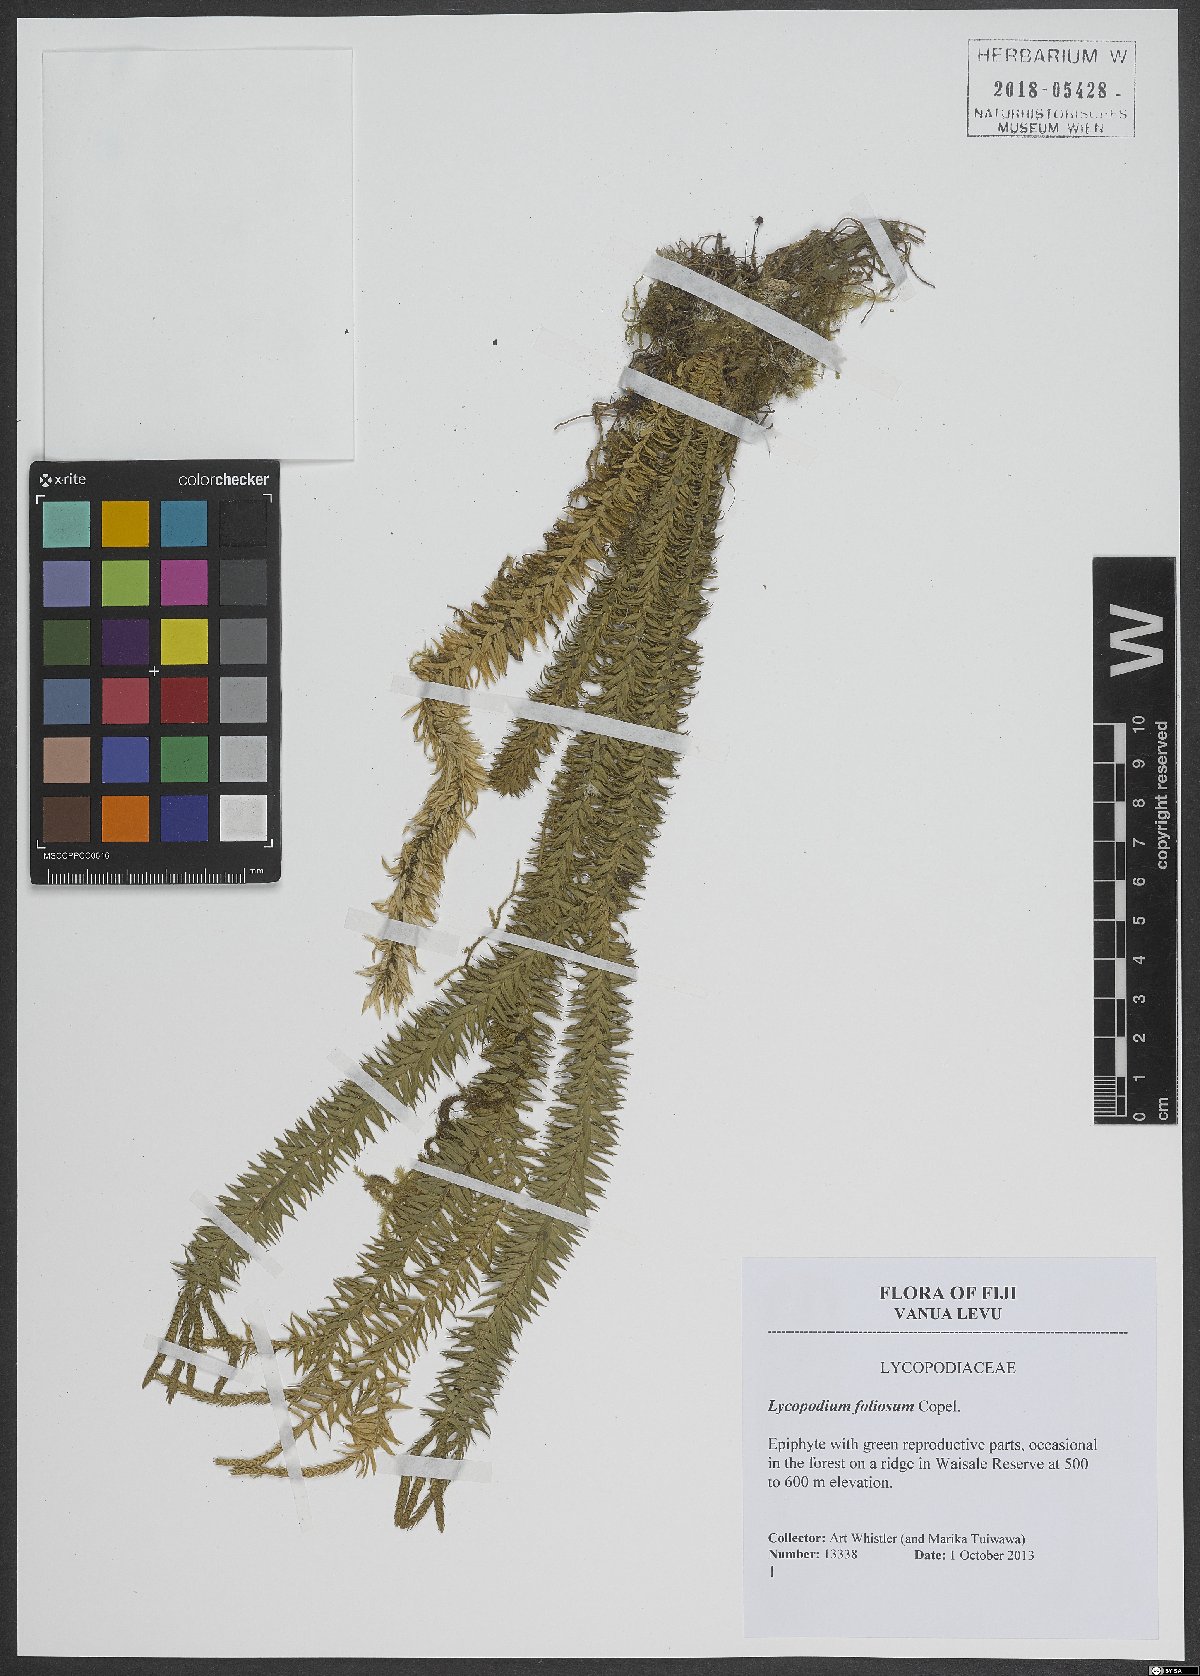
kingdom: Plantae
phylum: Tracheophyta
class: Lycopodiopsida
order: Lycopodiales
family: Lycopodiaceae
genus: Phlegmariurus
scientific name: Phlegmariurus foliosus
